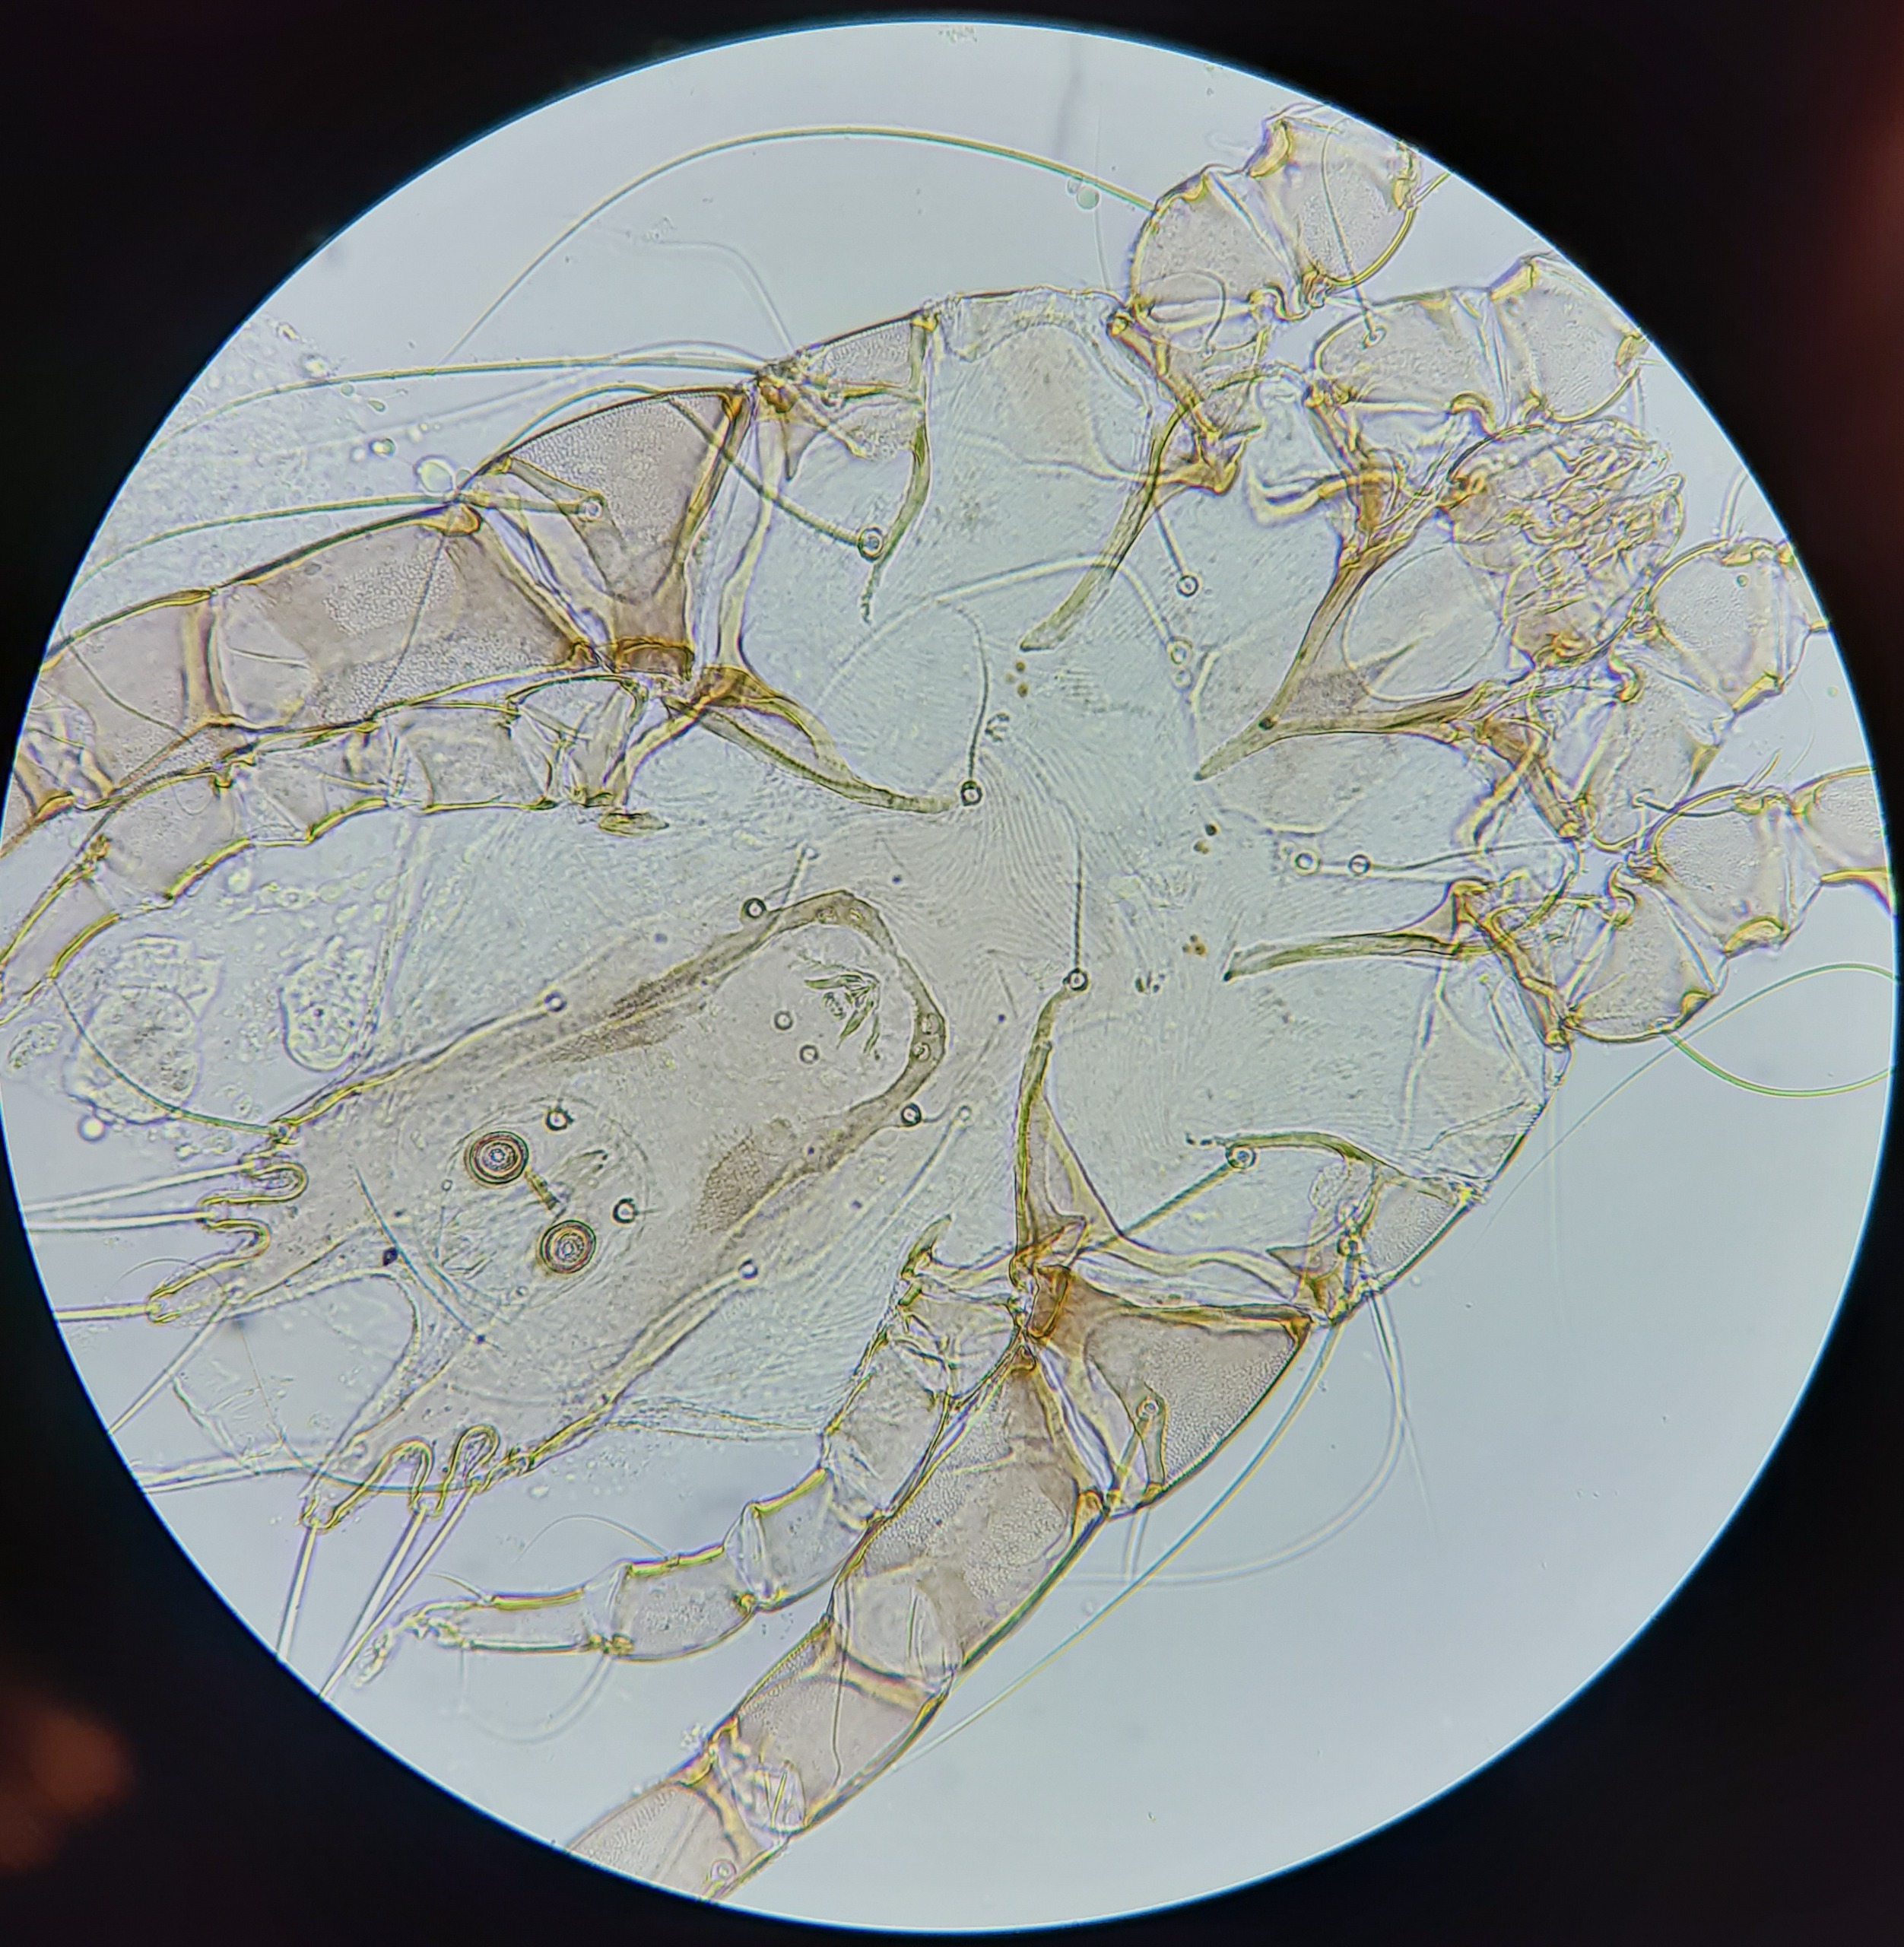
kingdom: Animalia
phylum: Arthropoda
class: Arachnida
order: Sarcoptiformes
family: Psoroptoididae
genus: Pandalura
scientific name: Pandalura strigisoti
